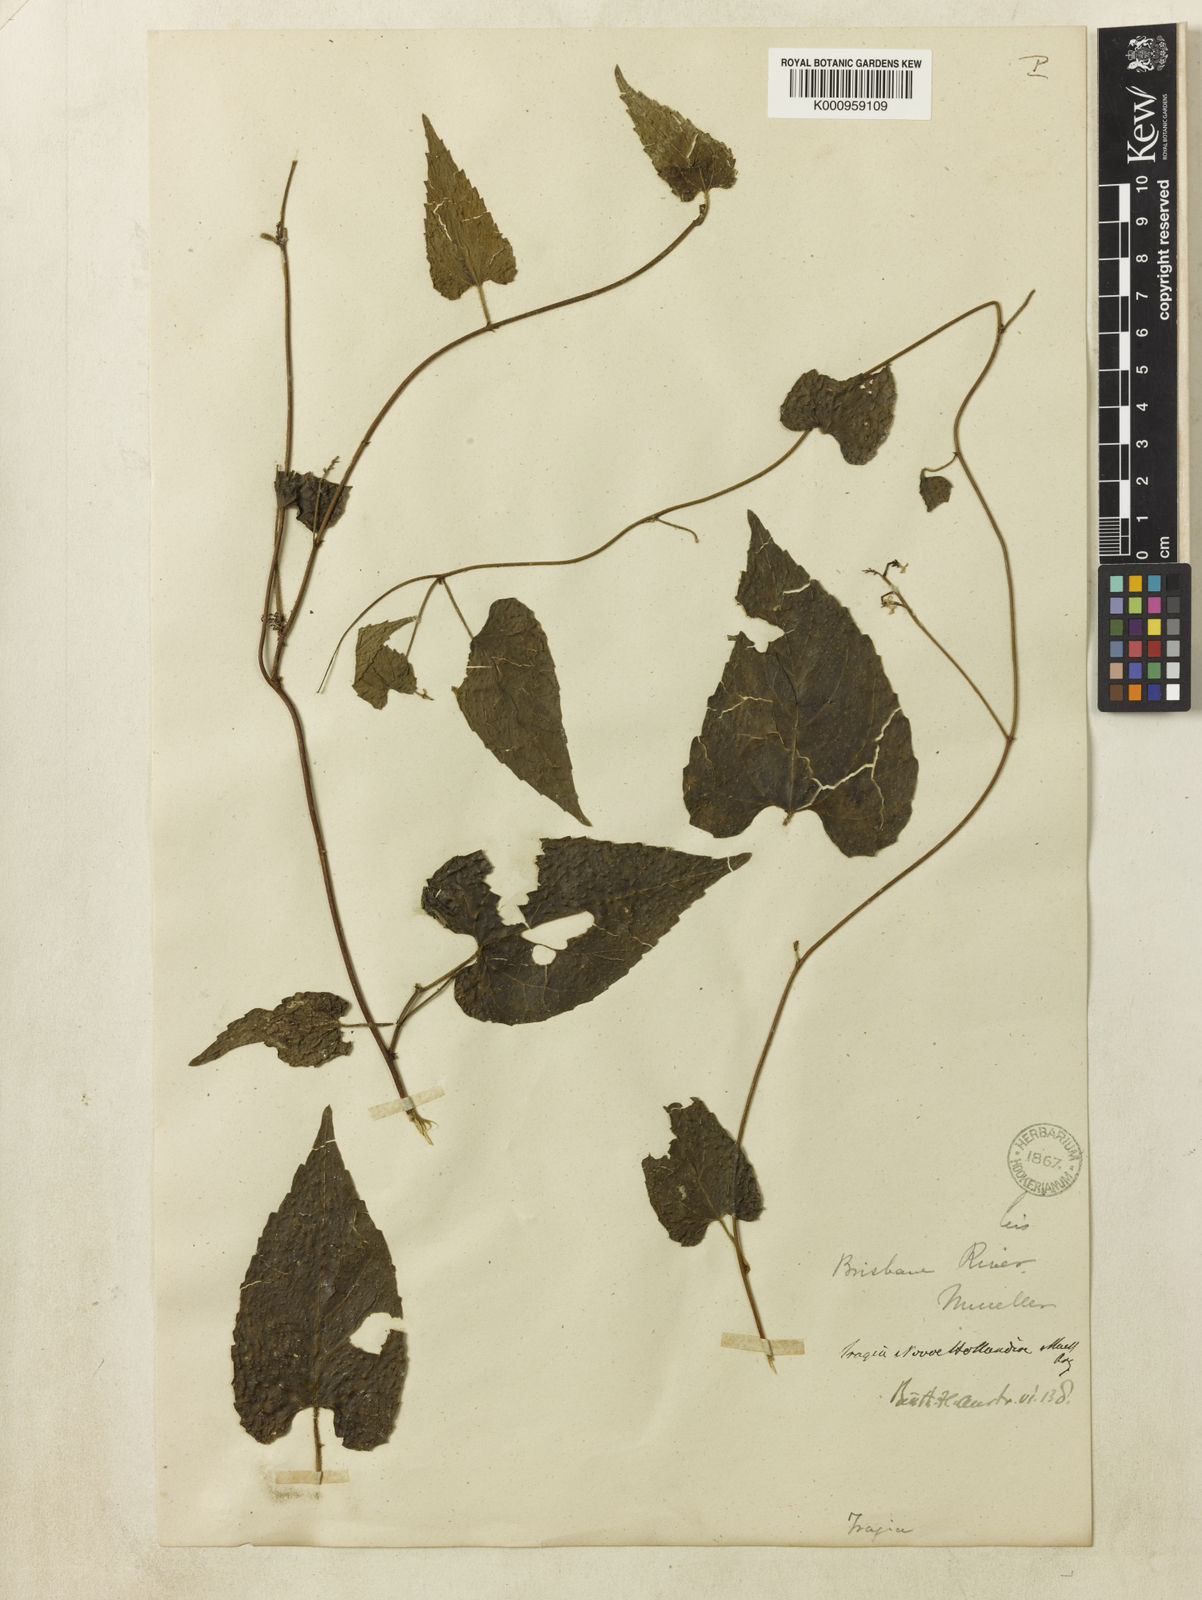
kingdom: Plantae
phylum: Tracheophyta
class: Magnoliopsida
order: Malpighiales
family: Euphorbiaceae
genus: Tragia
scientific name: Tragia
